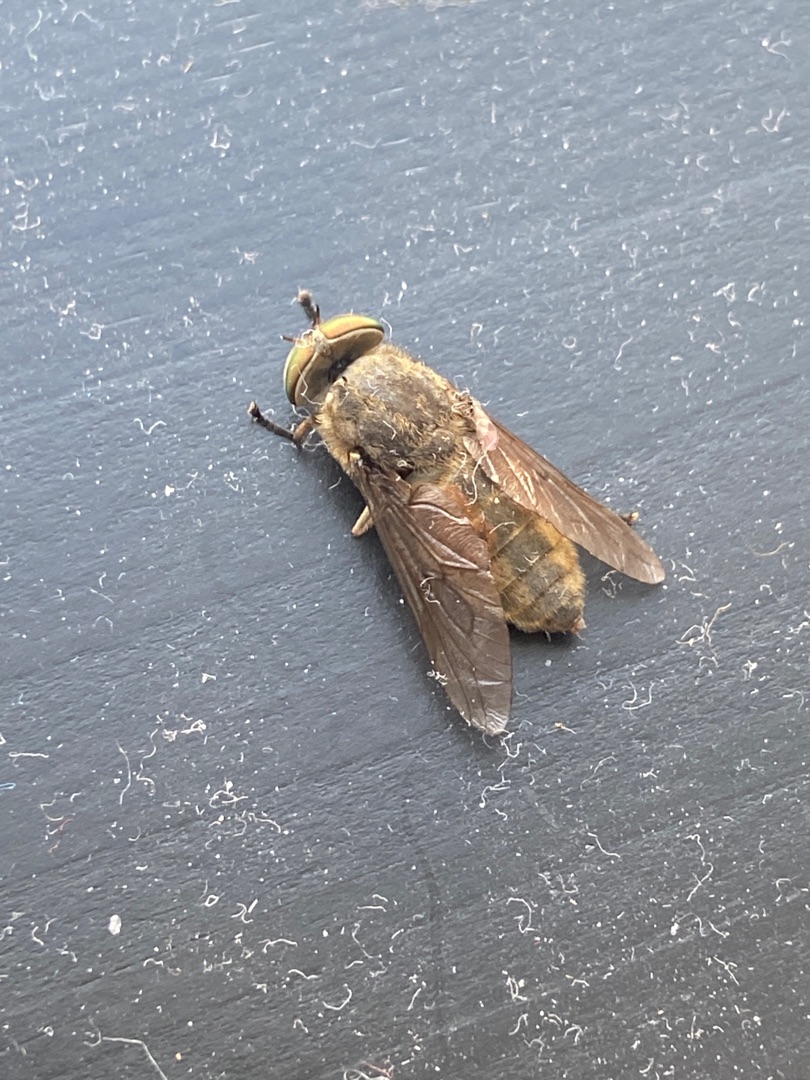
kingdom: Animalia
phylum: Arthropoda
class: Insecta
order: Diptera
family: Tabanidae
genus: Hybomitra
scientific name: Hybomitra solstitialis
